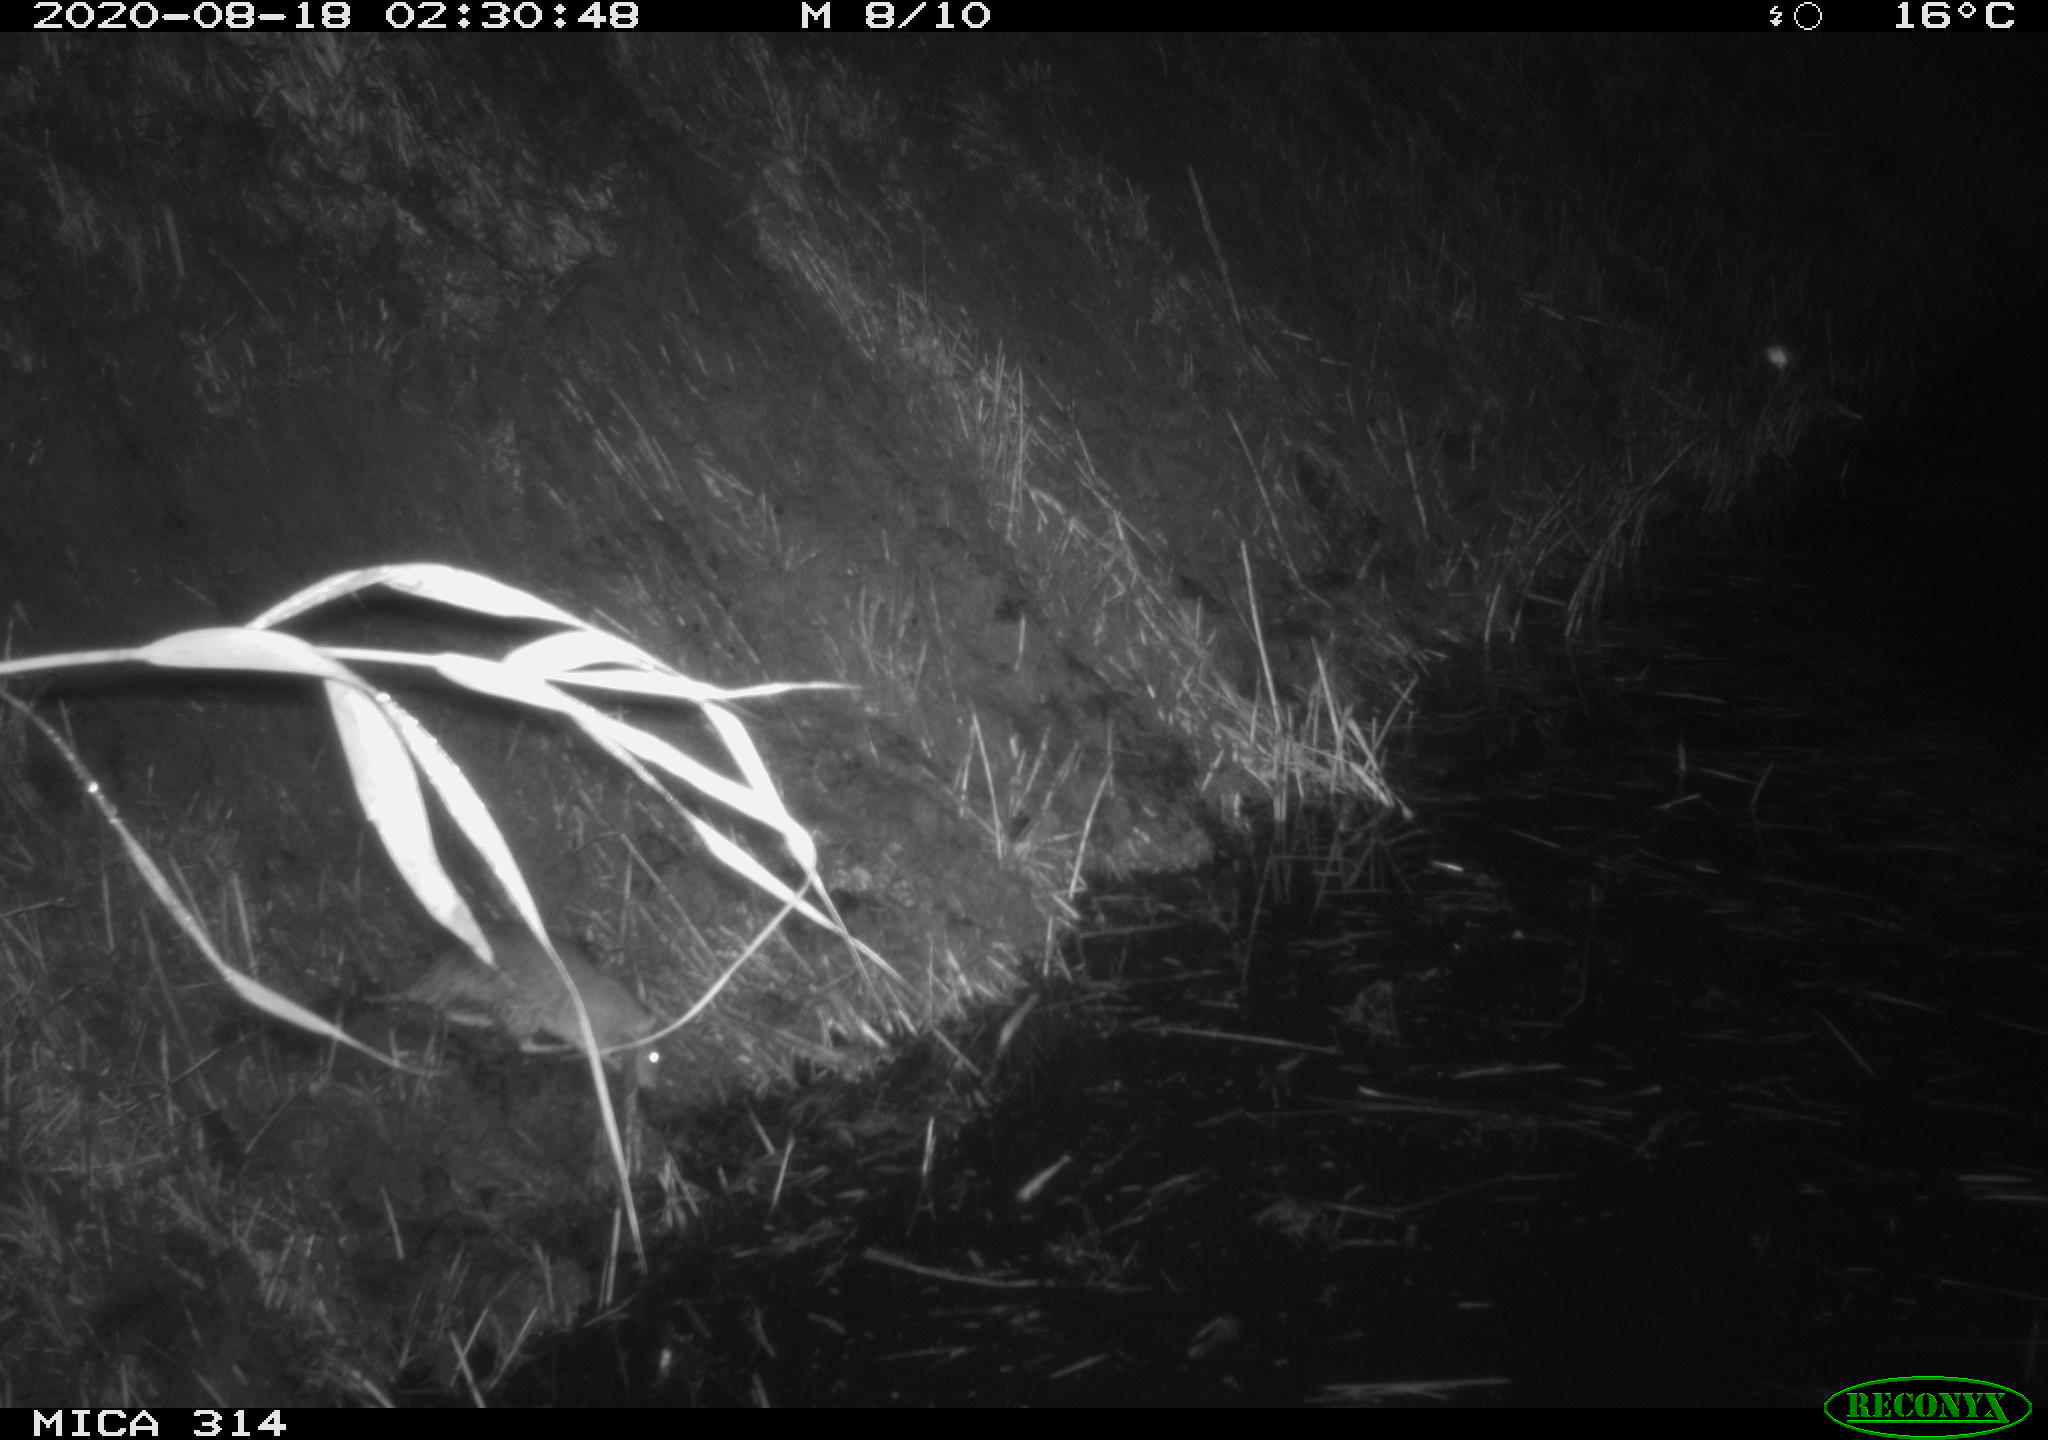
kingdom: Animalia
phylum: Chordata
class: Mammalia
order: Rodentia
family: Muridae
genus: Rattus
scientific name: Rattus norvegicus
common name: Brown rat
